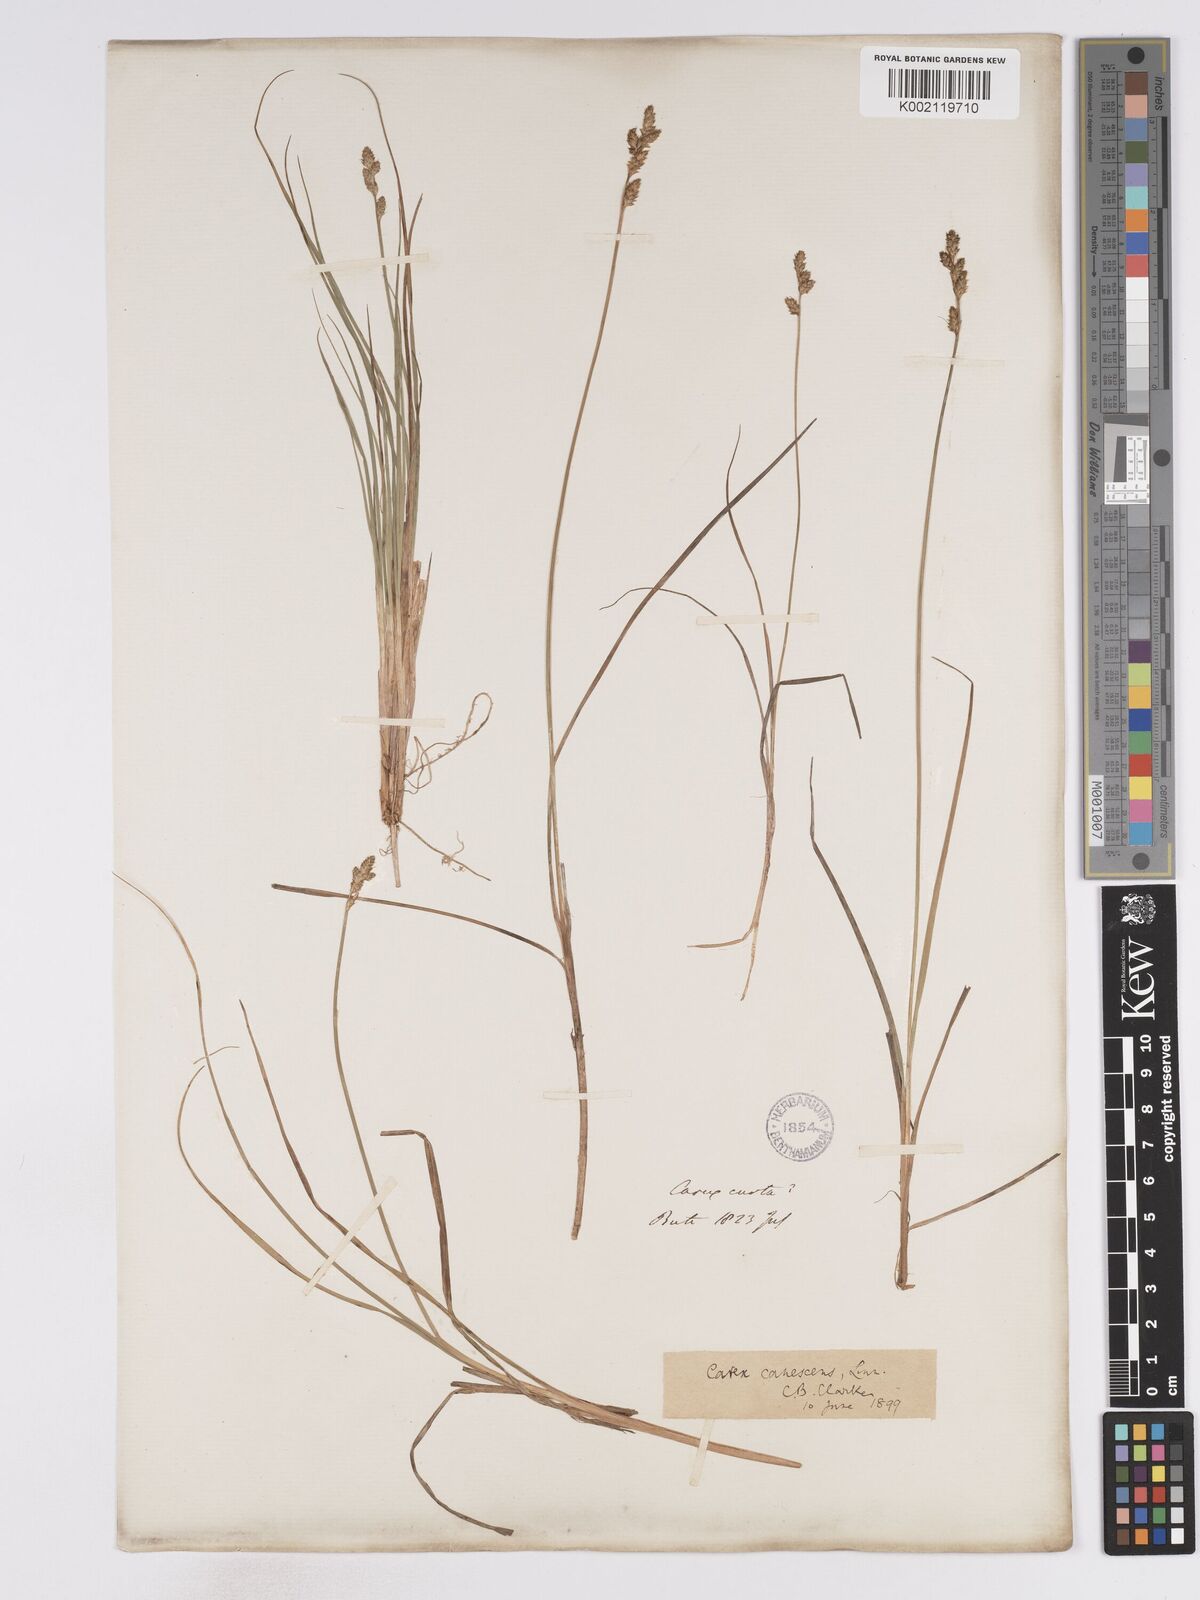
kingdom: Plantae
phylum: Tracheophyta
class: Liliopsida
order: Poales
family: Cyperaceae
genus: Carex
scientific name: Carex curta
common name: White sedge
